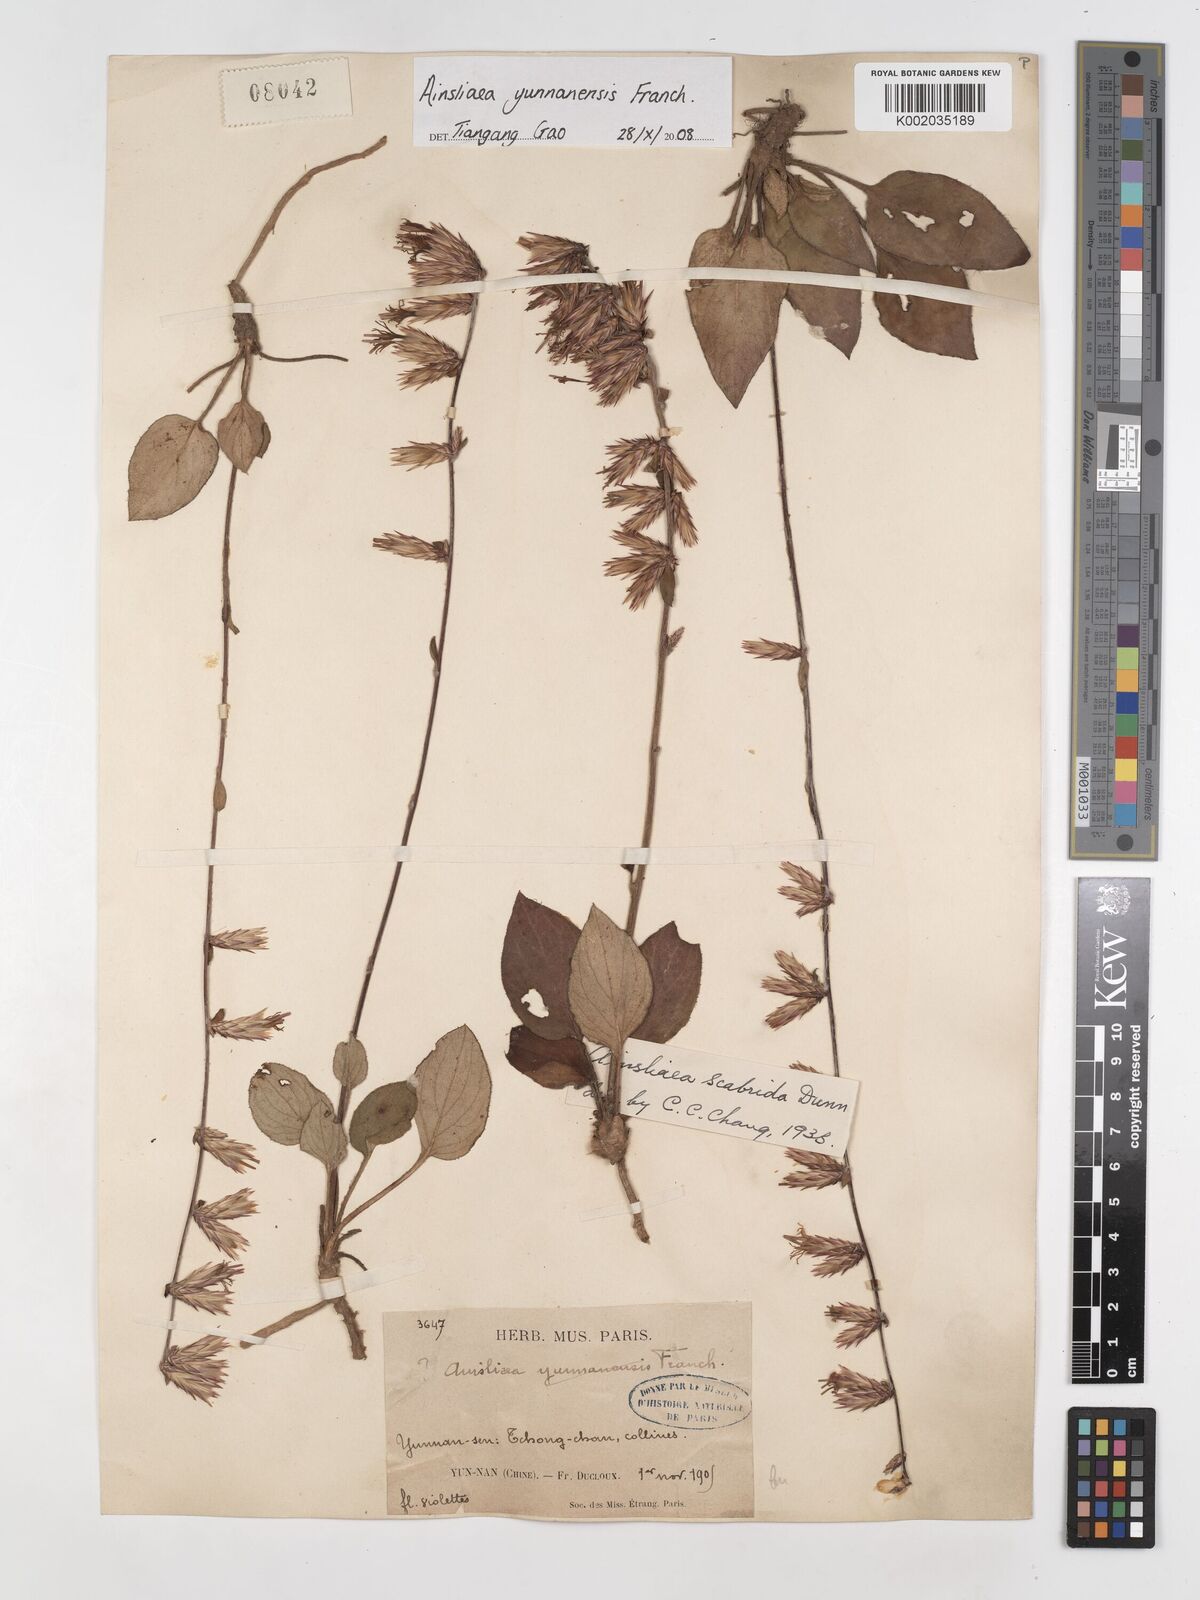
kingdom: Plantae
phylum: Tracheophyta
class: Magnoliopsida
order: Asterales
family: Asteraceae
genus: Ainsliaea
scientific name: Ainsliaea yunnanensis
